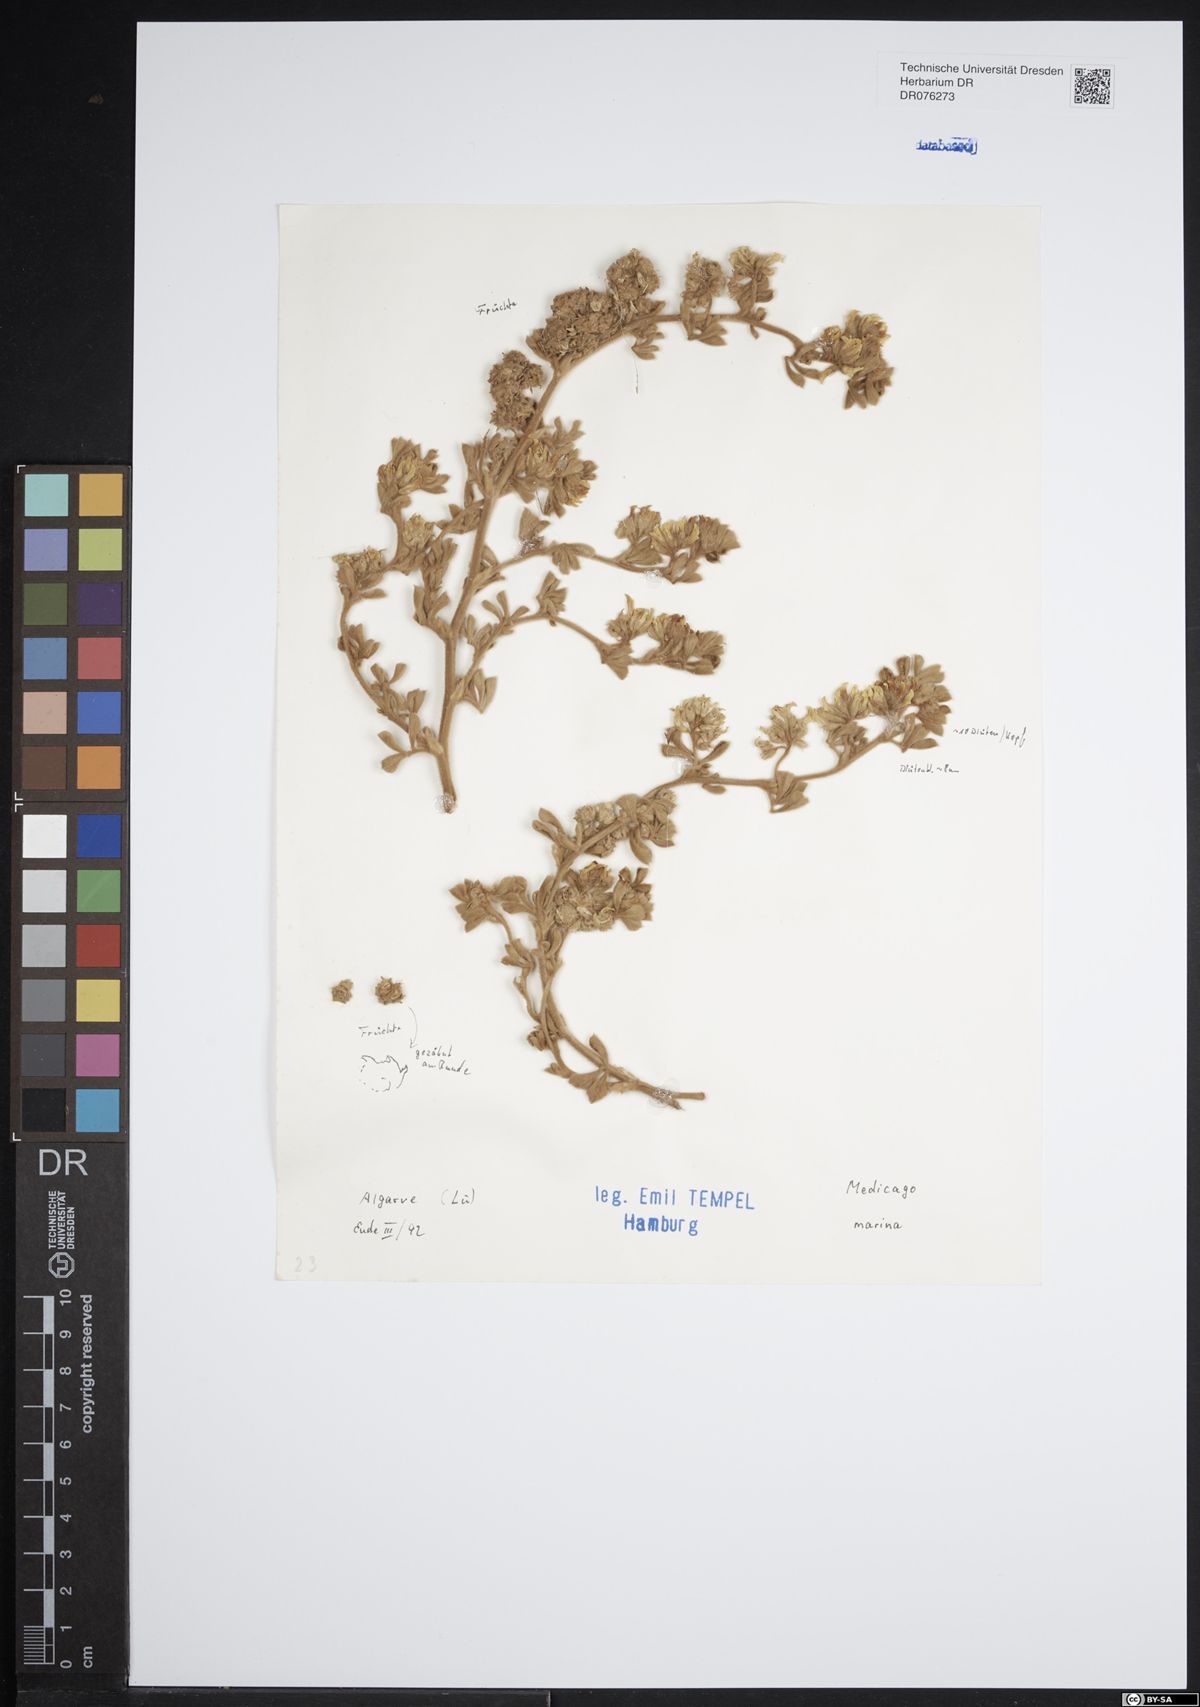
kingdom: Plantae
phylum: Tracheophyta
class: Magnoliopsida
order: Fabales
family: Fabaceae
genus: Medicago
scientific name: Medicago marina
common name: Sea medick
